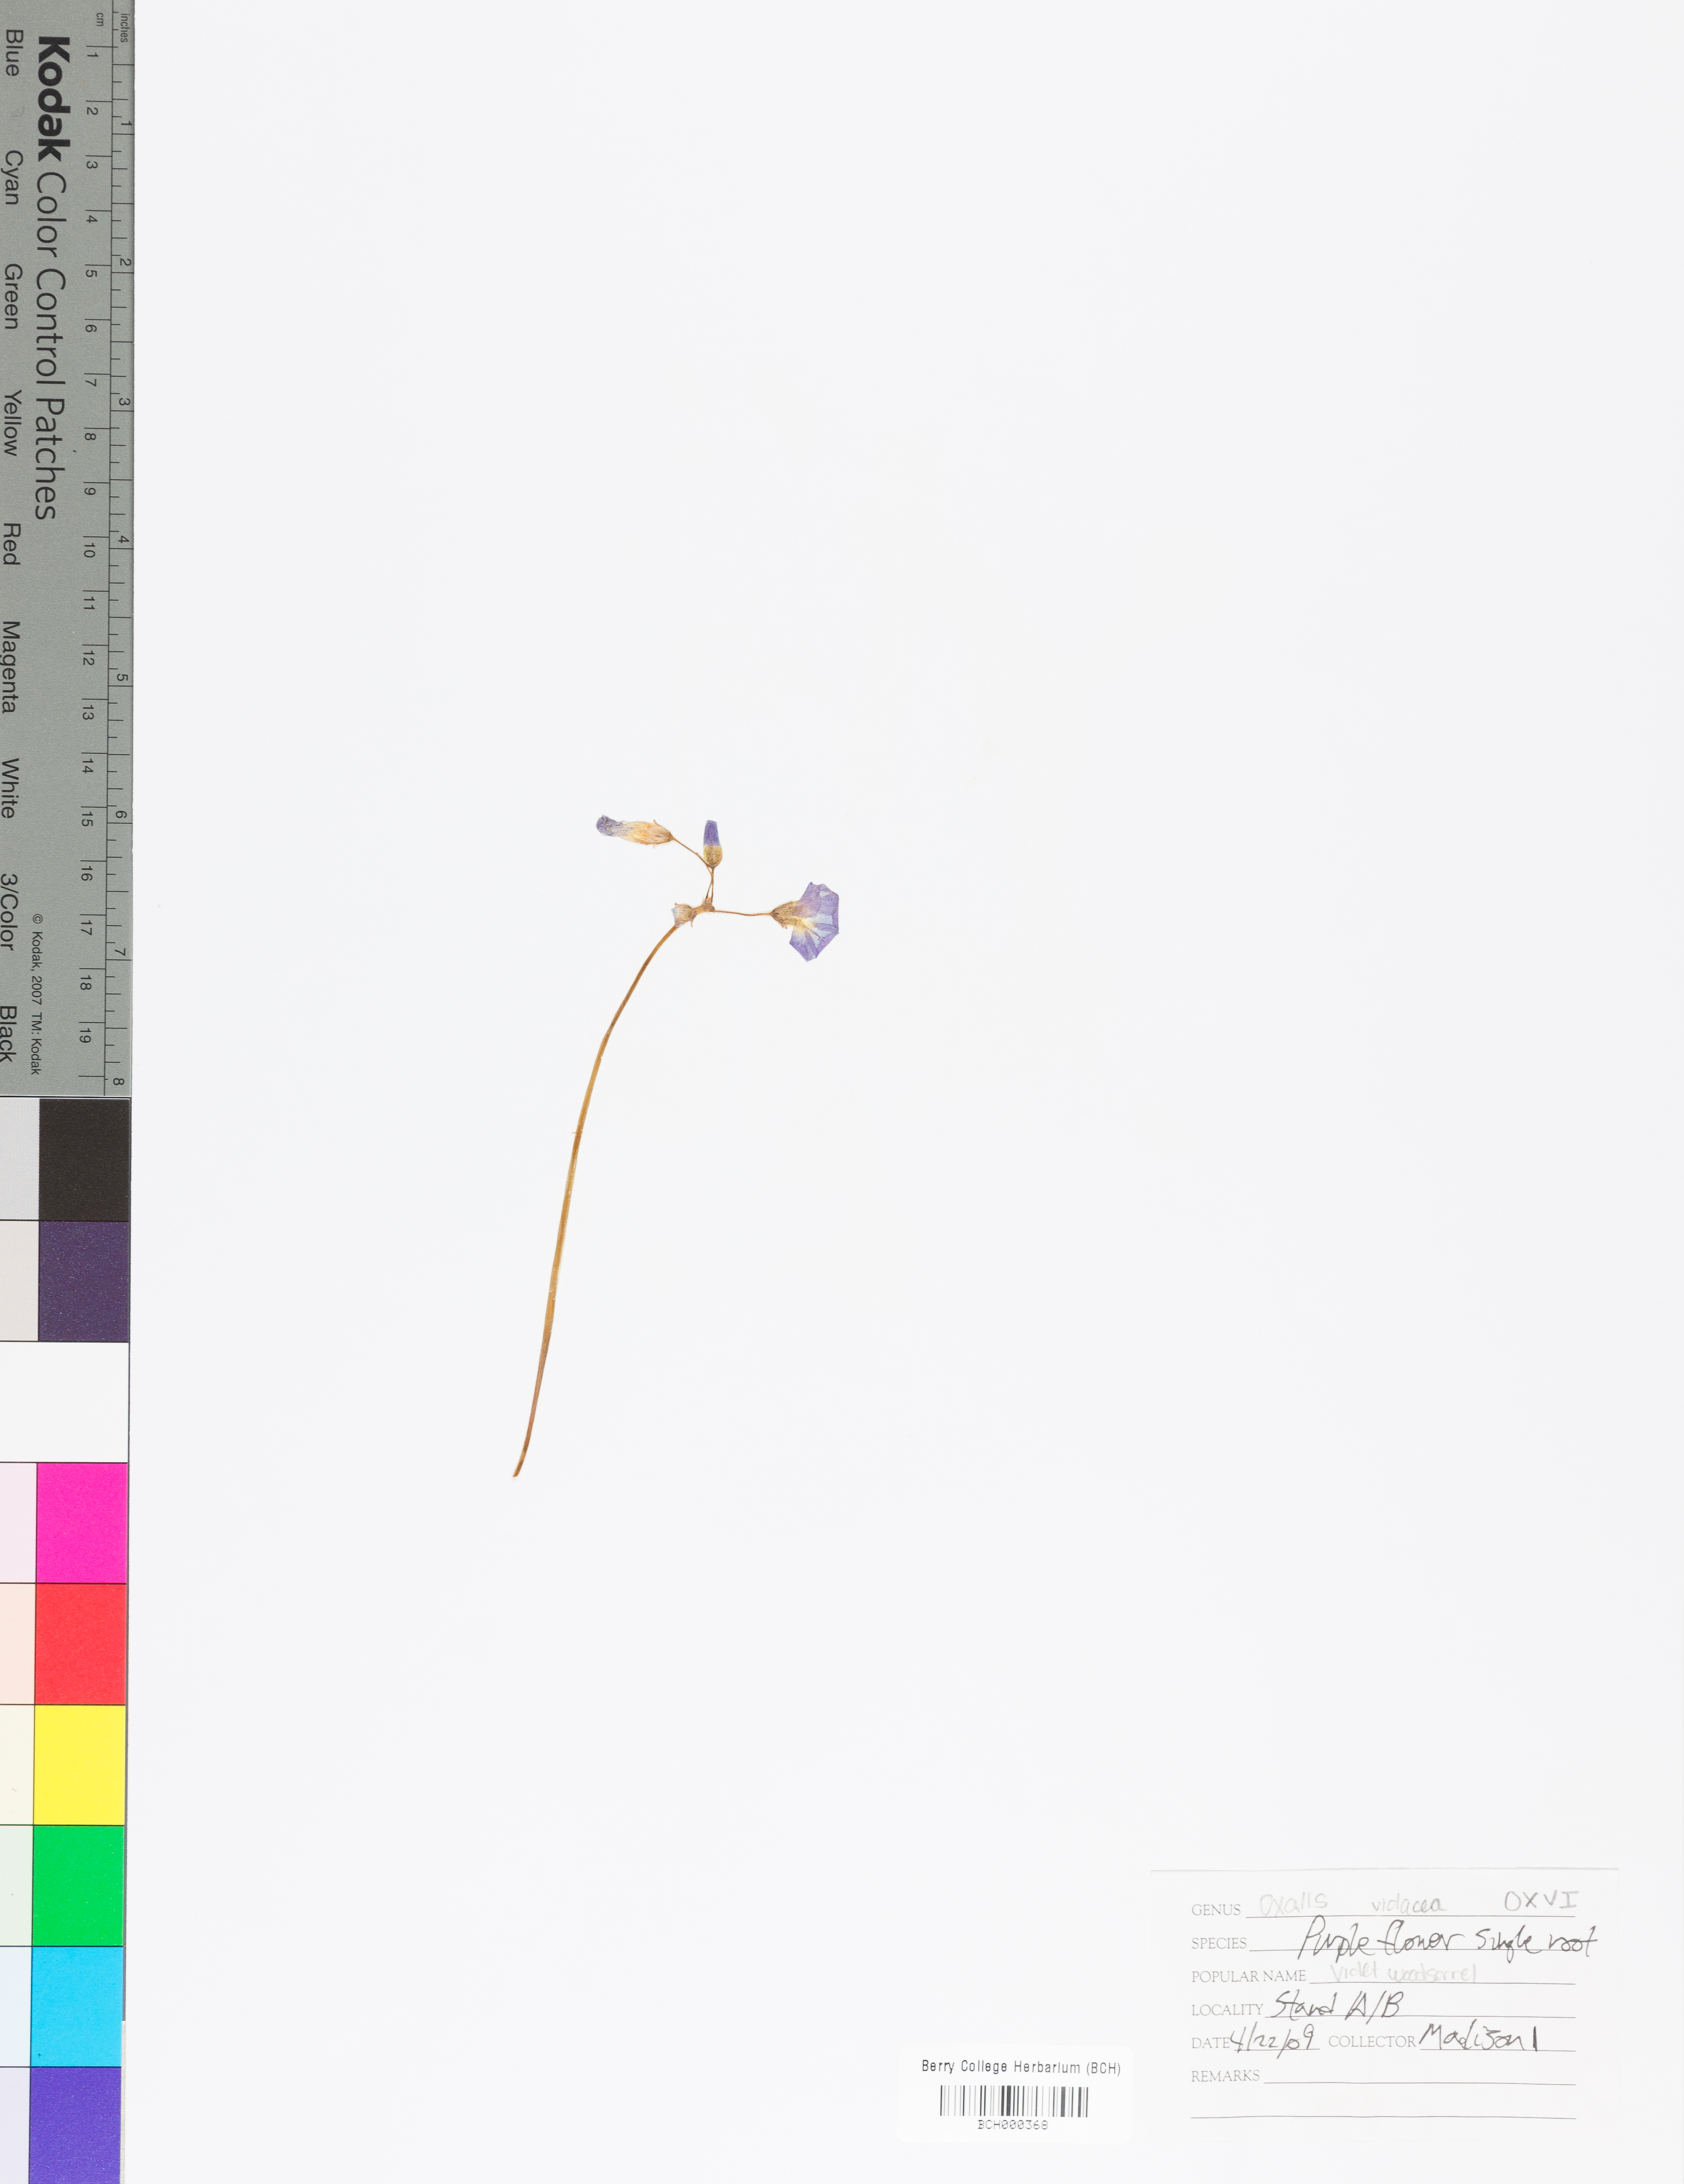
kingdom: Plantae
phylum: Tracheophyta
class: Magnoliopsida
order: Oxalidales
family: Oxalidaceae
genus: Oxalis
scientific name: Oxalis violacea
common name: Violet wood-sorrel
